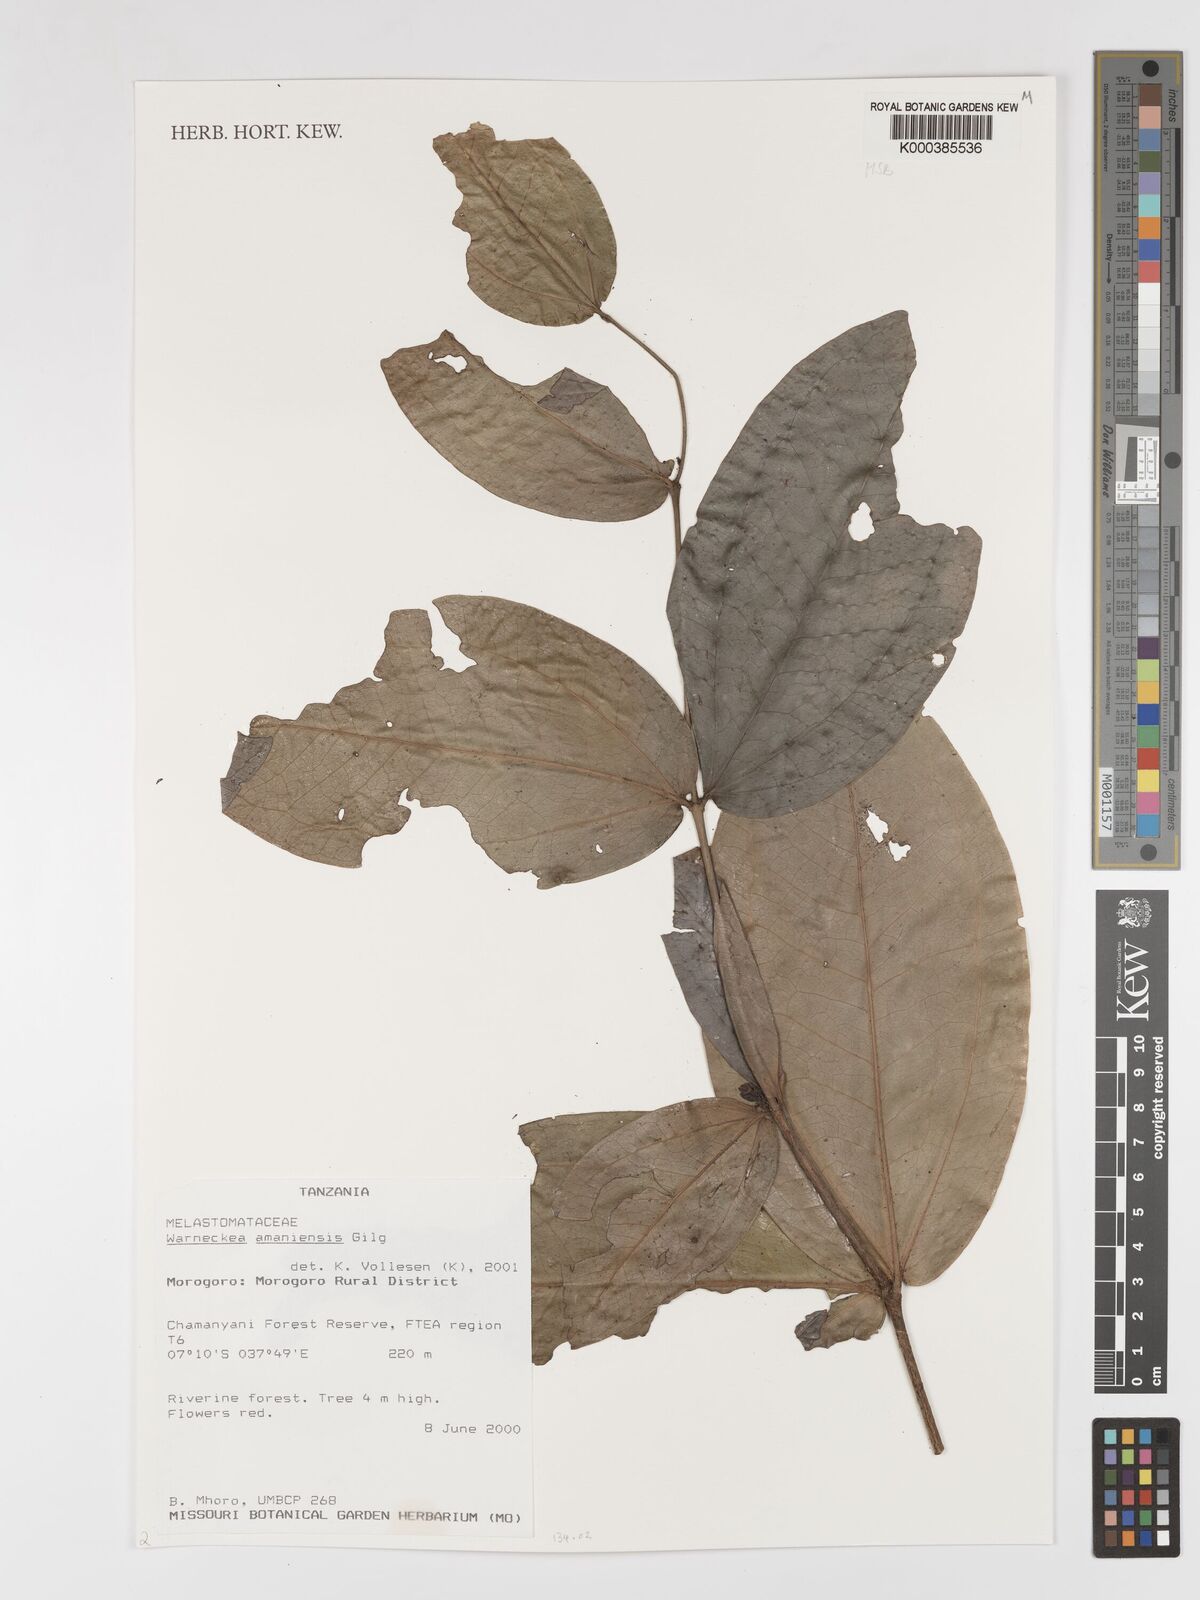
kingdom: Plantae
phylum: Tracheophyta
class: Magnoliopsida
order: Myrtales
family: Melastomataceae
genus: Warneckea
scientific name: Warneckea amaniensis
